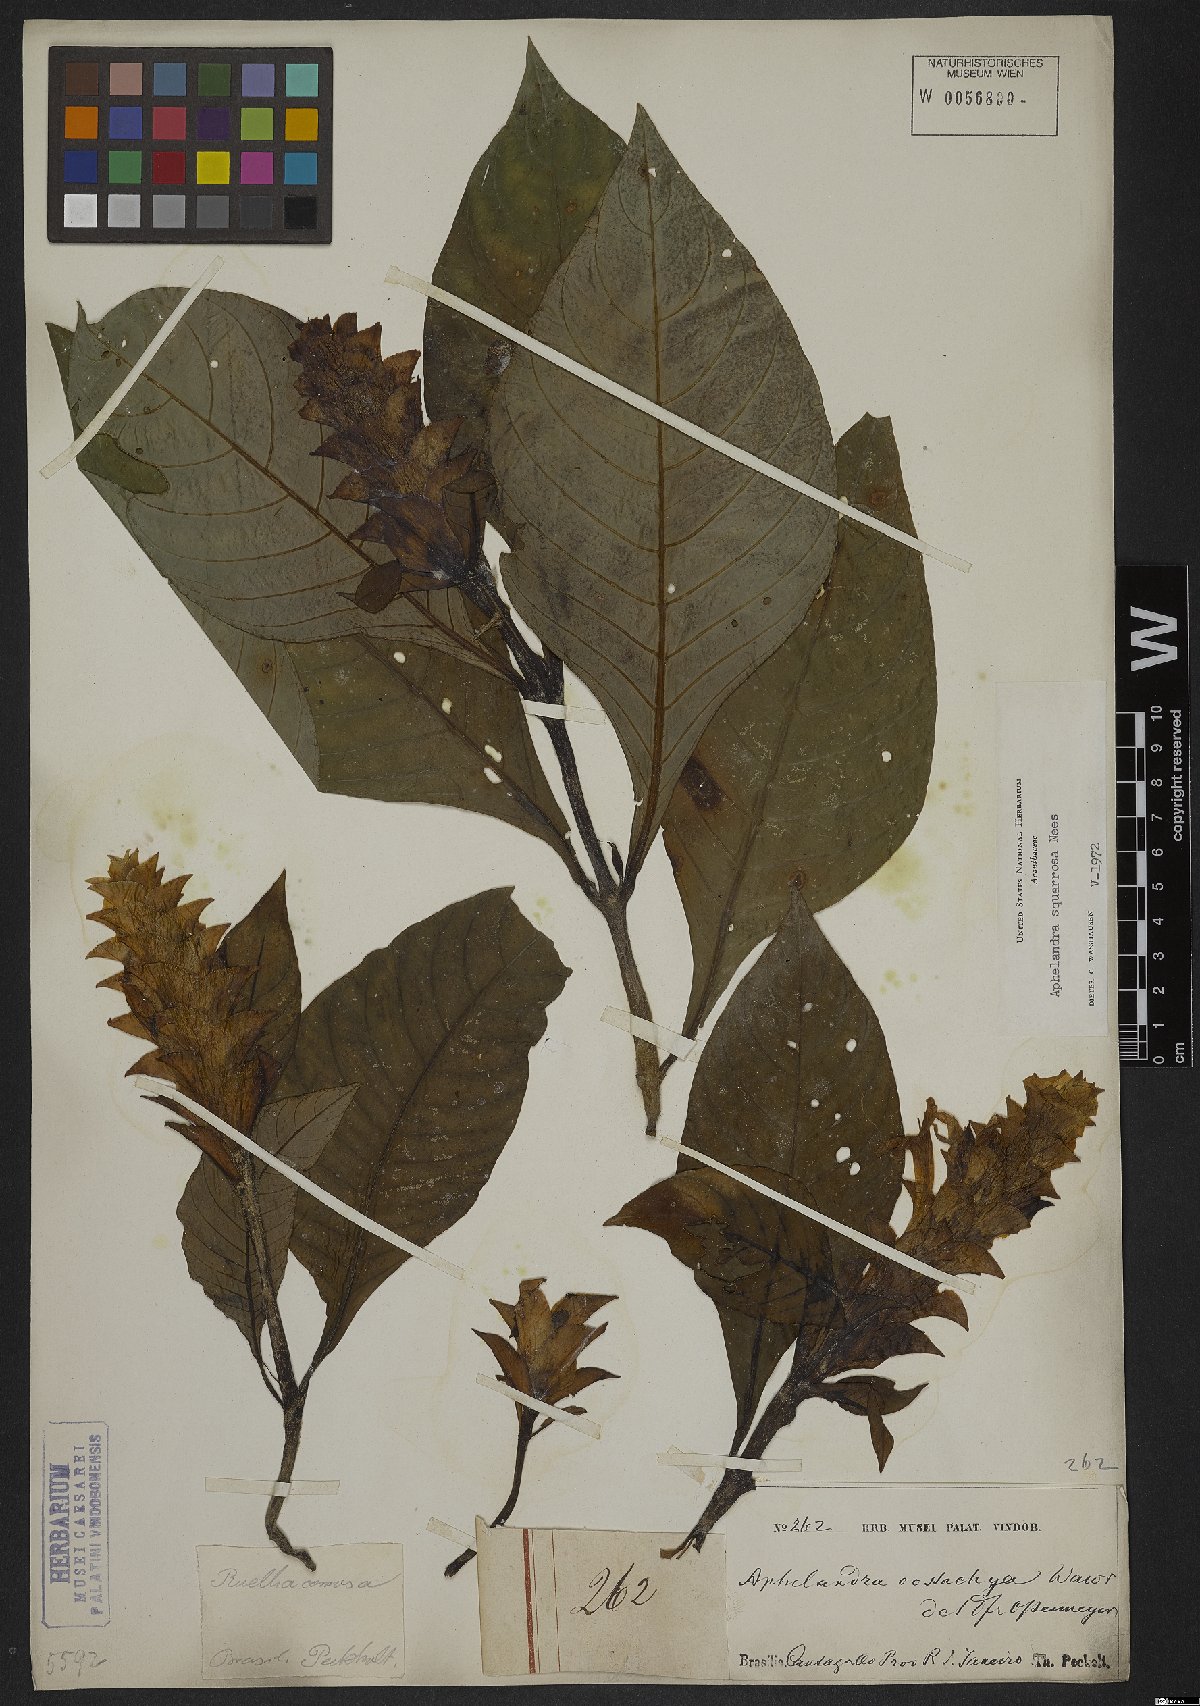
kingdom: Plantae
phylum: Tracheophyta
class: Magnoliopsida
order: Lamiales
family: Acanthaceae
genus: Aphelandra
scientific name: Aphelandra squarrosa
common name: Saffron spike
